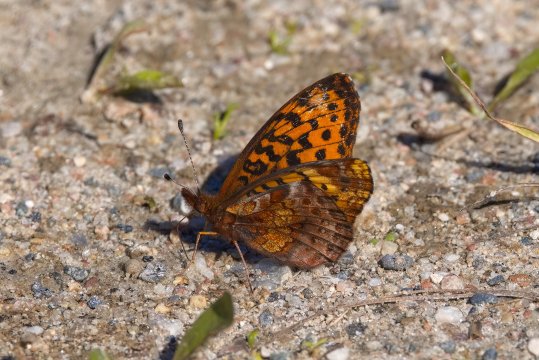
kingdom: Animalia
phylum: Arthropoda
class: Insecta
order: Lepidoptera
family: Nymphalidae
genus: Clossiana
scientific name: Clossiana toddi
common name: Meadow Fritillary
